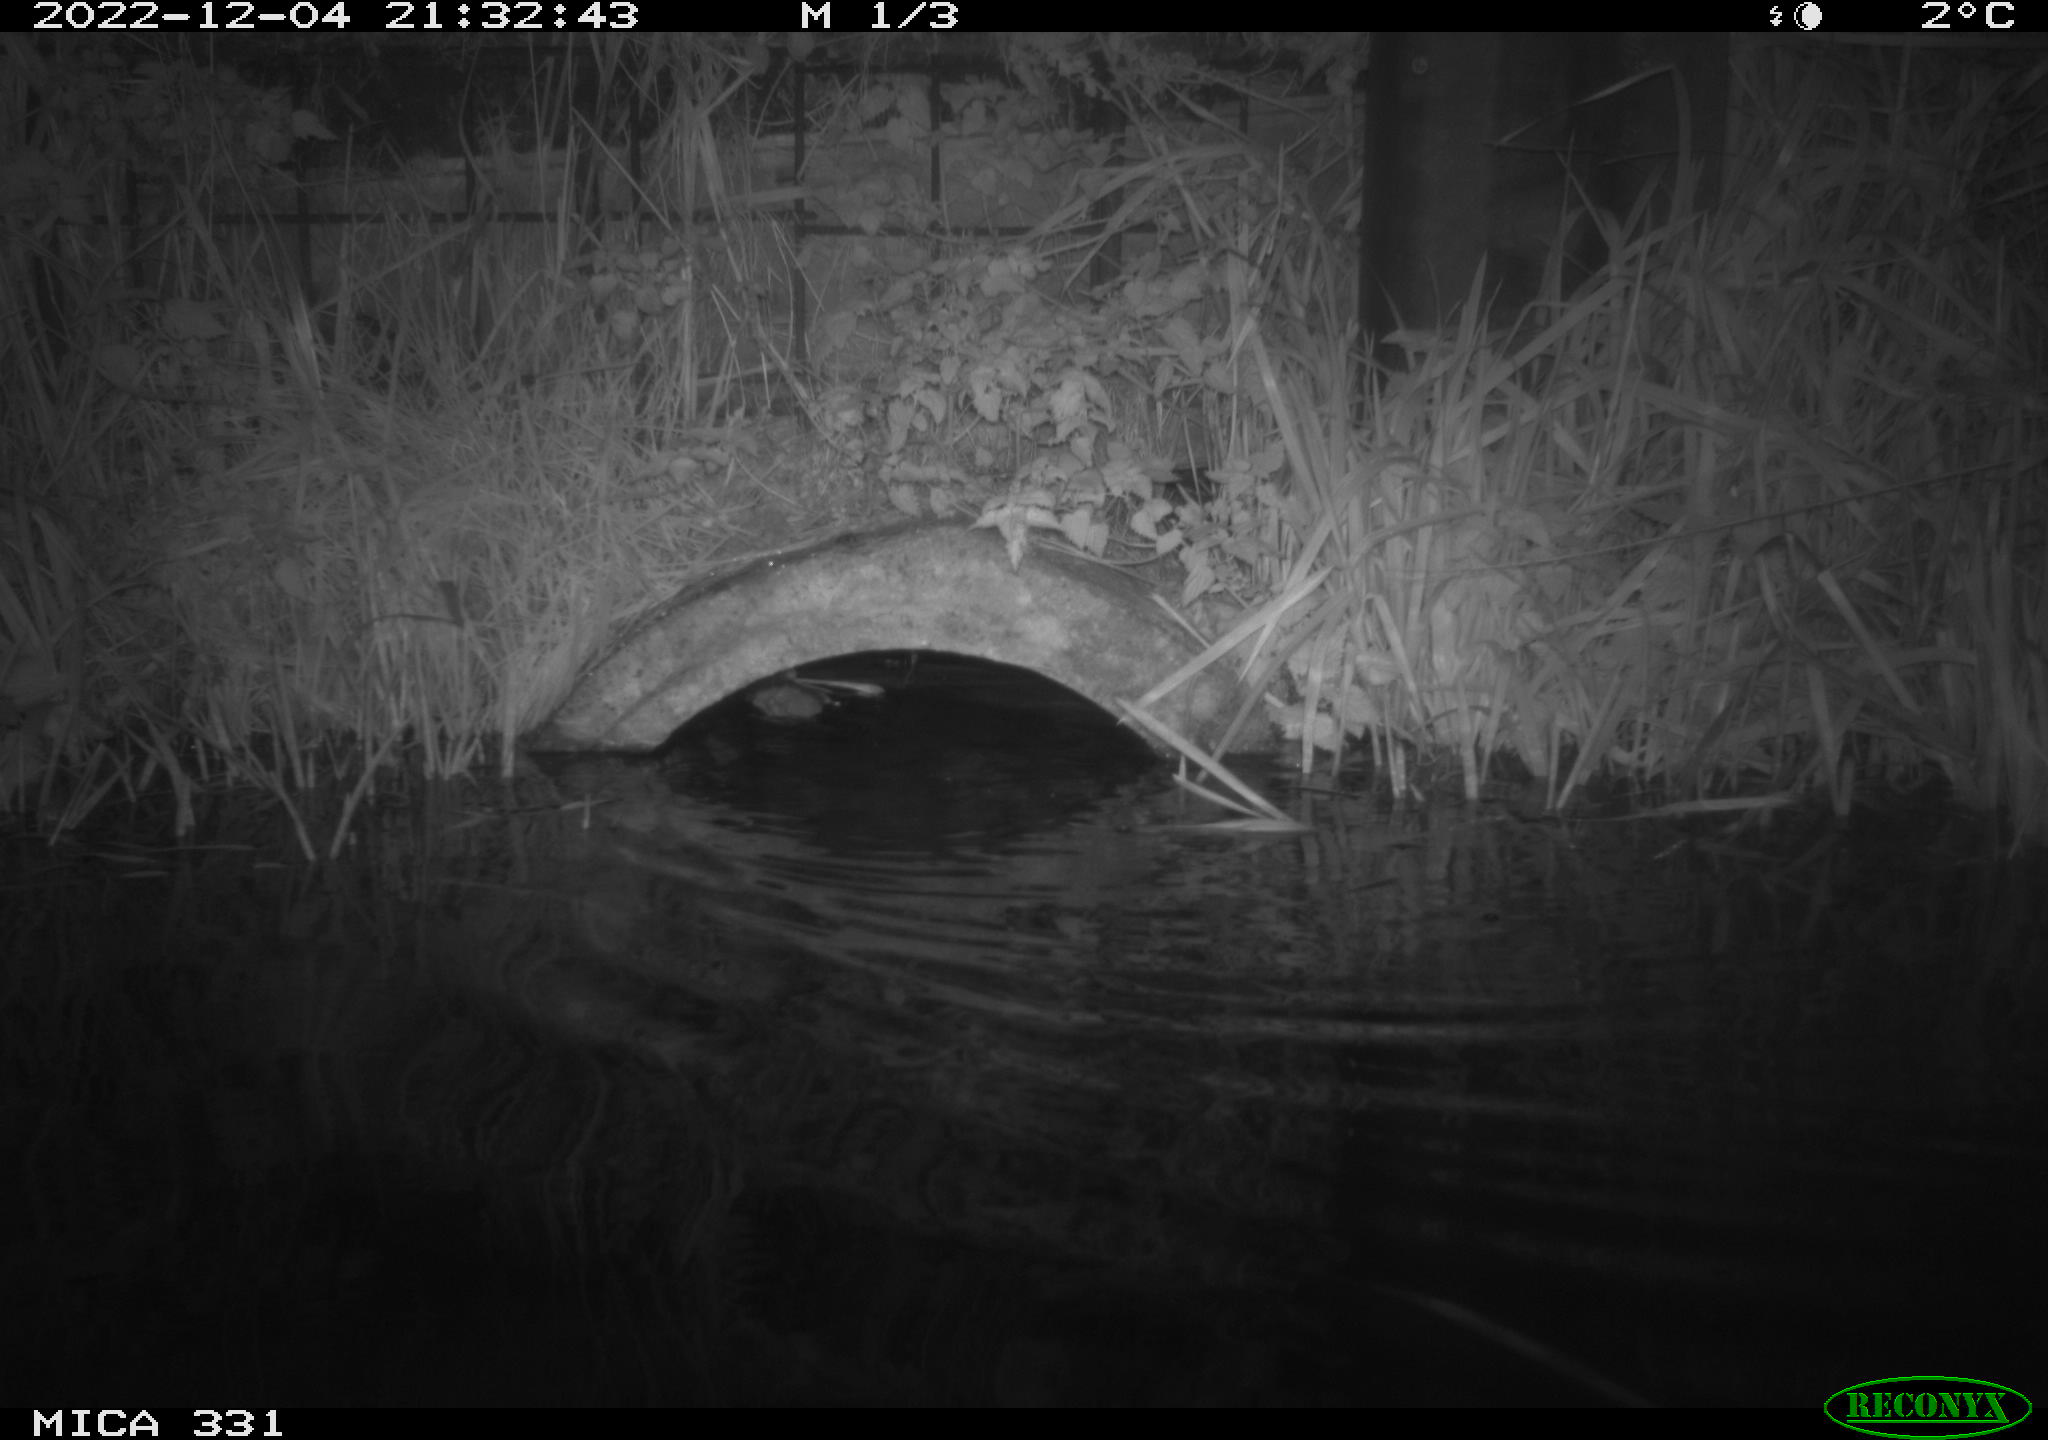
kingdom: Animalia
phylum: Chordata
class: Mammalia
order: Rodentia
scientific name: Rodentia
